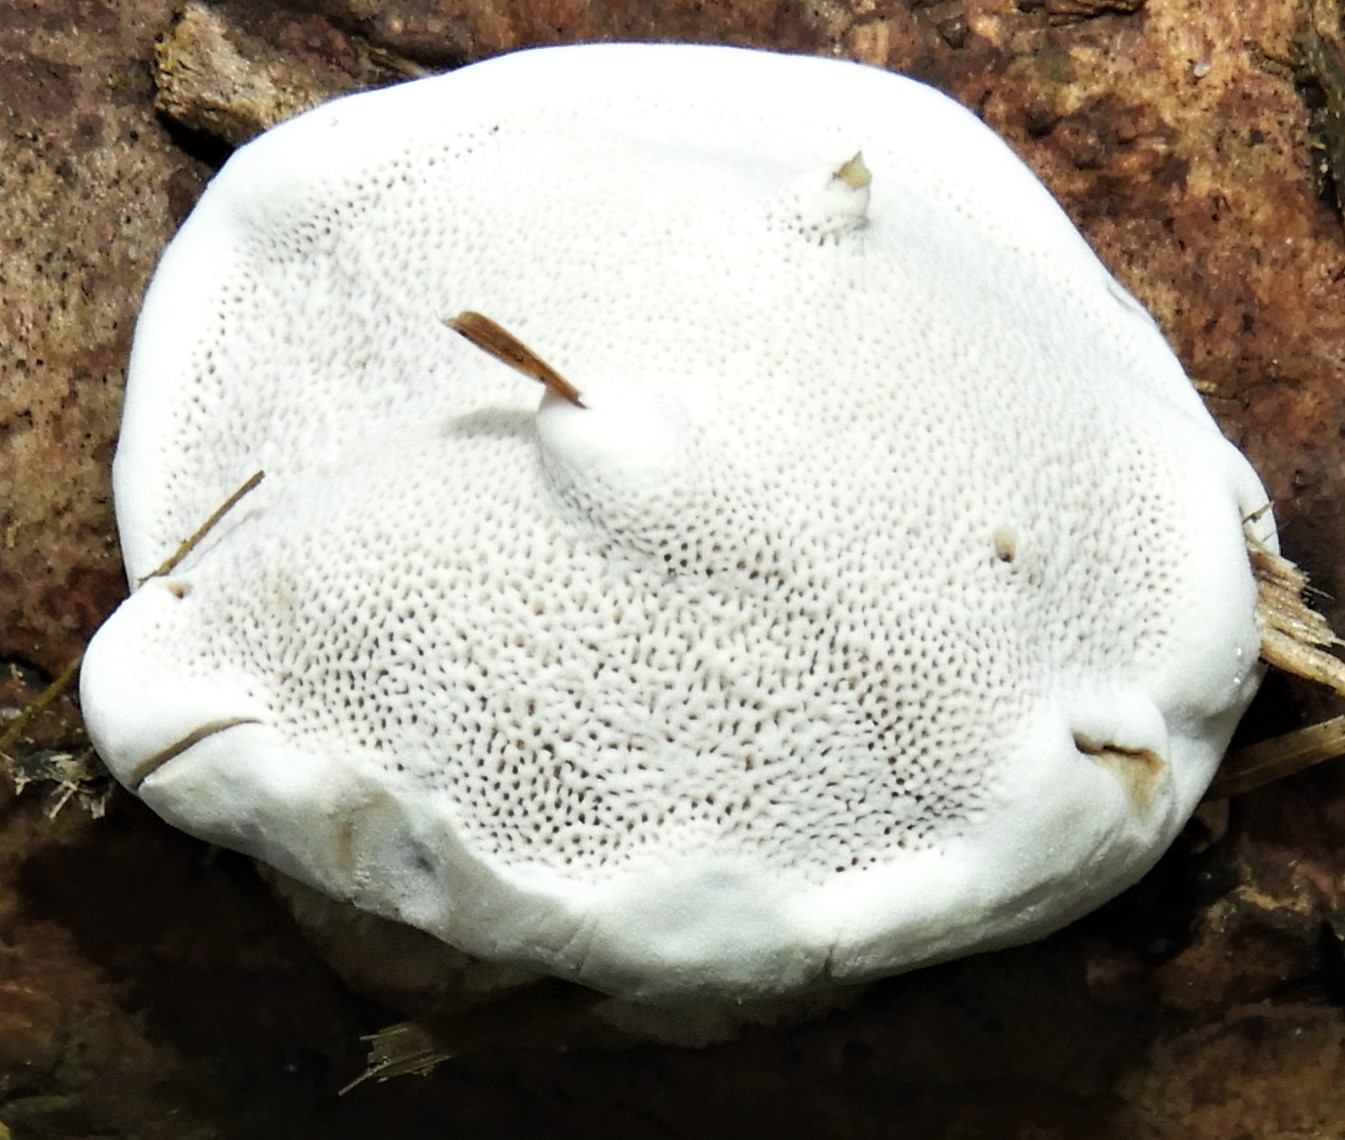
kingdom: Fungi
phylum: Basidiomycota
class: Agaricomycetes
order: Polyporales
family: Fomitopsidaceae
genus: Fomitopsis
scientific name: Fomitopsis pinicola
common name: randbæltet hovporesvamp
